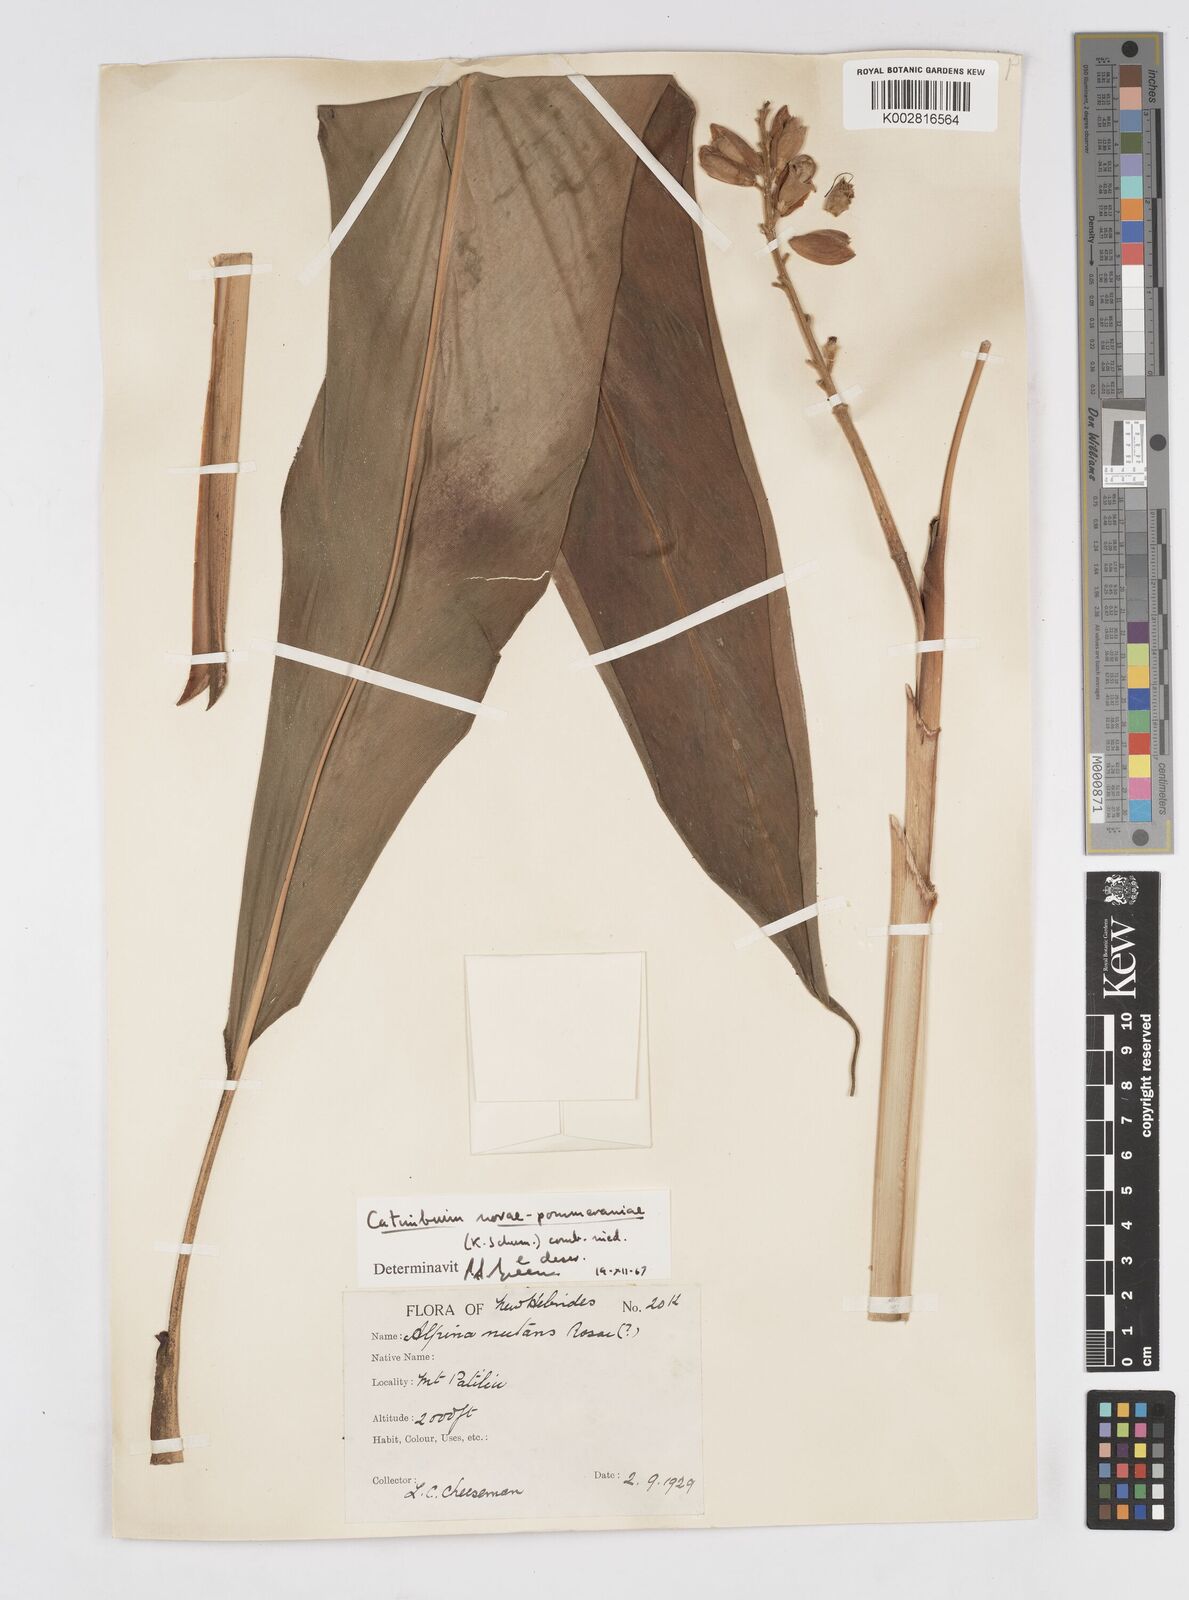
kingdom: Plantae
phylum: Tracheophyta
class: Liliopsida
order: Zingiberales
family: Zingiberaceae
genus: Alpinia
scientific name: Alpinia novae-pommeraniae
